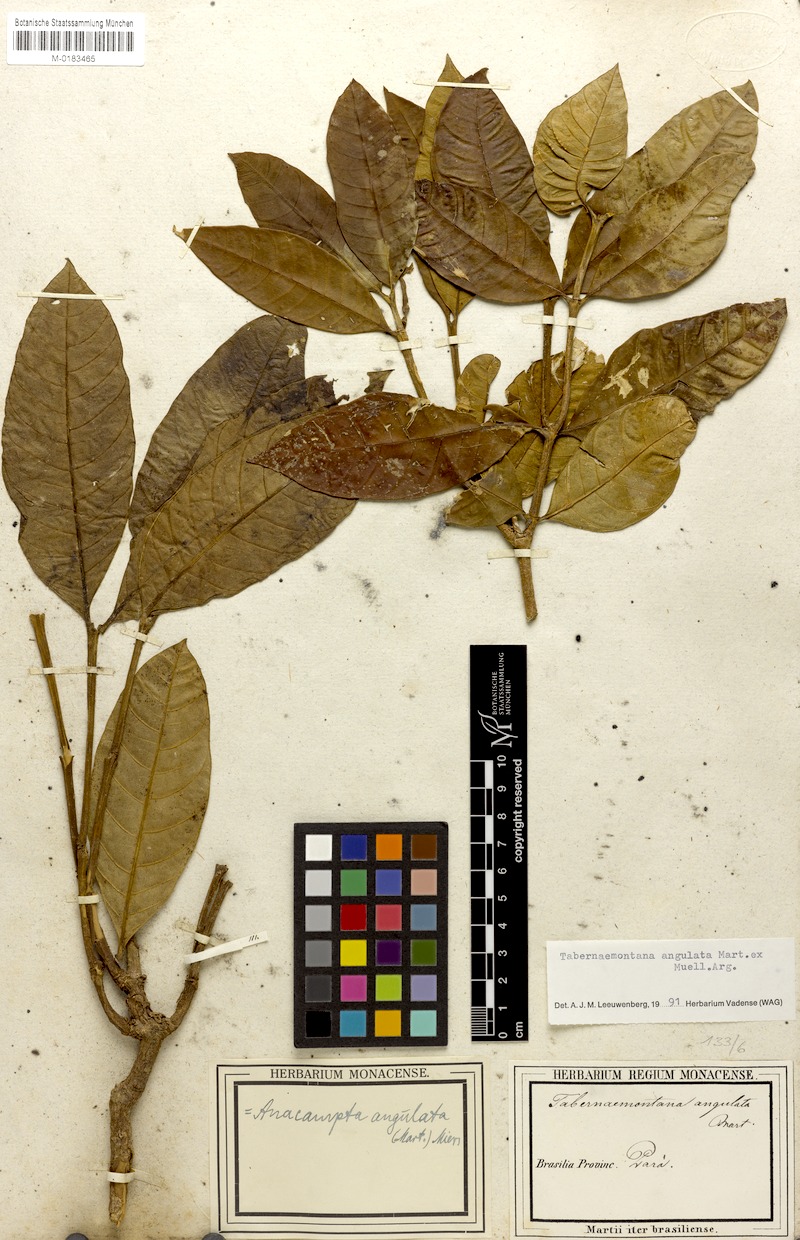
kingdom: Plantae
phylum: Tracheophyta
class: Magnoliopsida
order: Gentianales
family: Apocynaceae
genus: Tabernaemontana
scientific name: Tabernaemontana angulata
